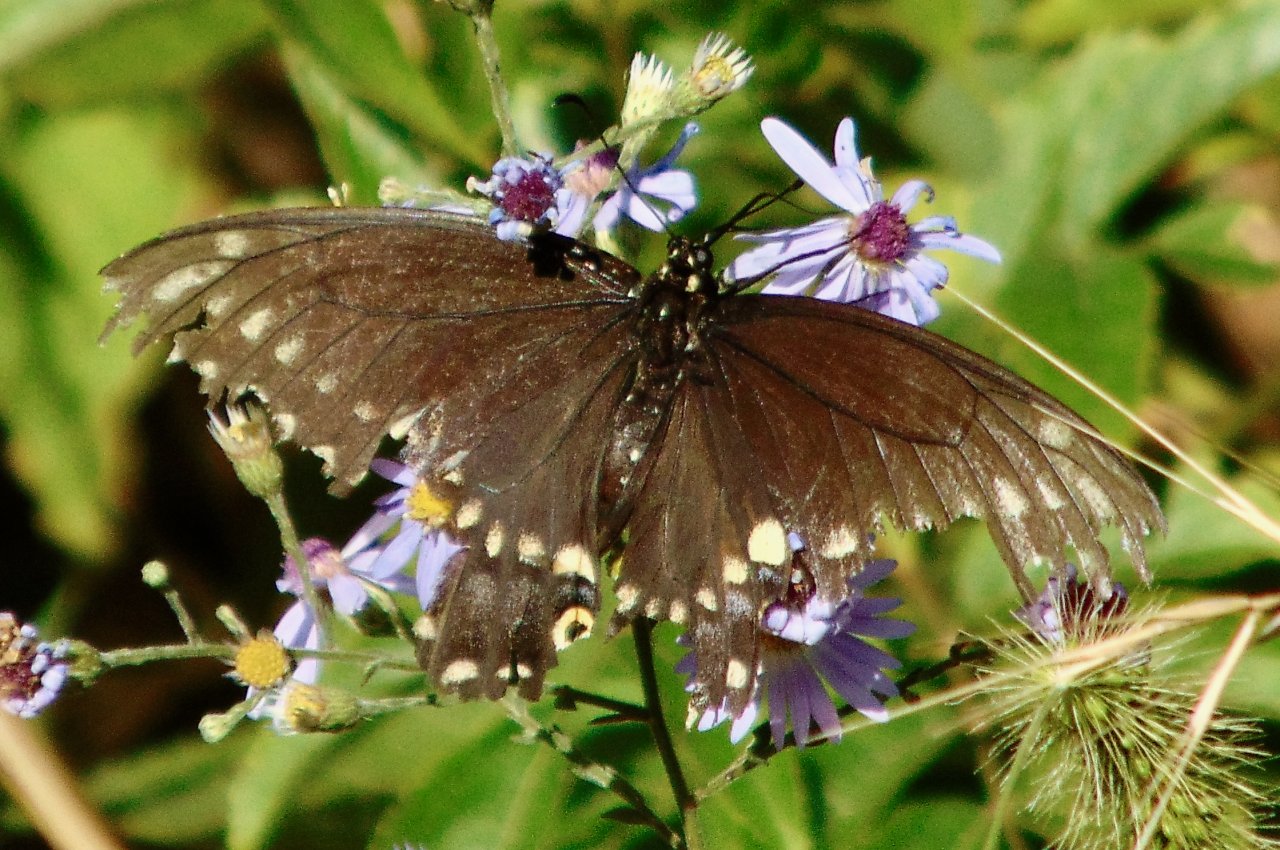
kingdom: Animalia
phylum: Arthropoda
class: Insecta
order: Lepidoptera
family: Papilionidae
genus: Papilio
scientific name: Papilio polyxenes
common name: Black Swallowtail
